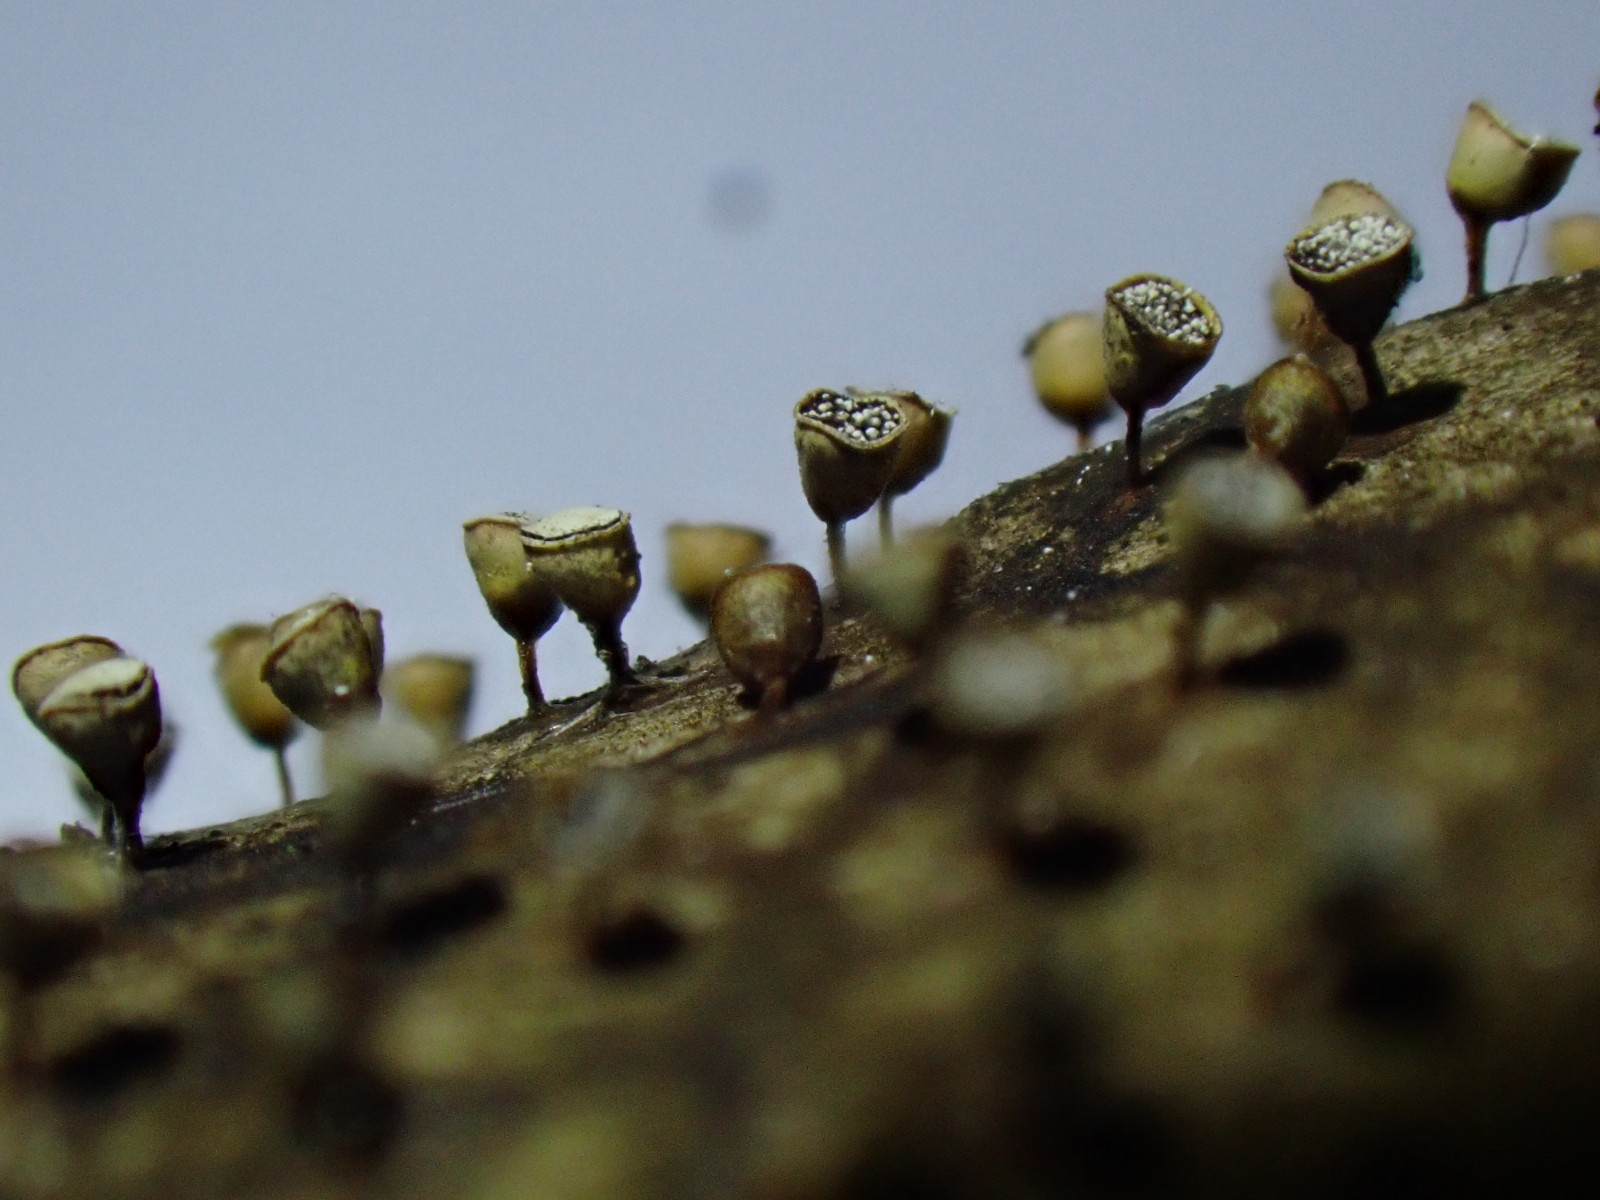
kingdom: Protozoa
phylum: Mycetozoa
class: Myxomycetes
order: Physarales
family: Physaraceae
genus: Craterium
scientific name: Craterium minutum
